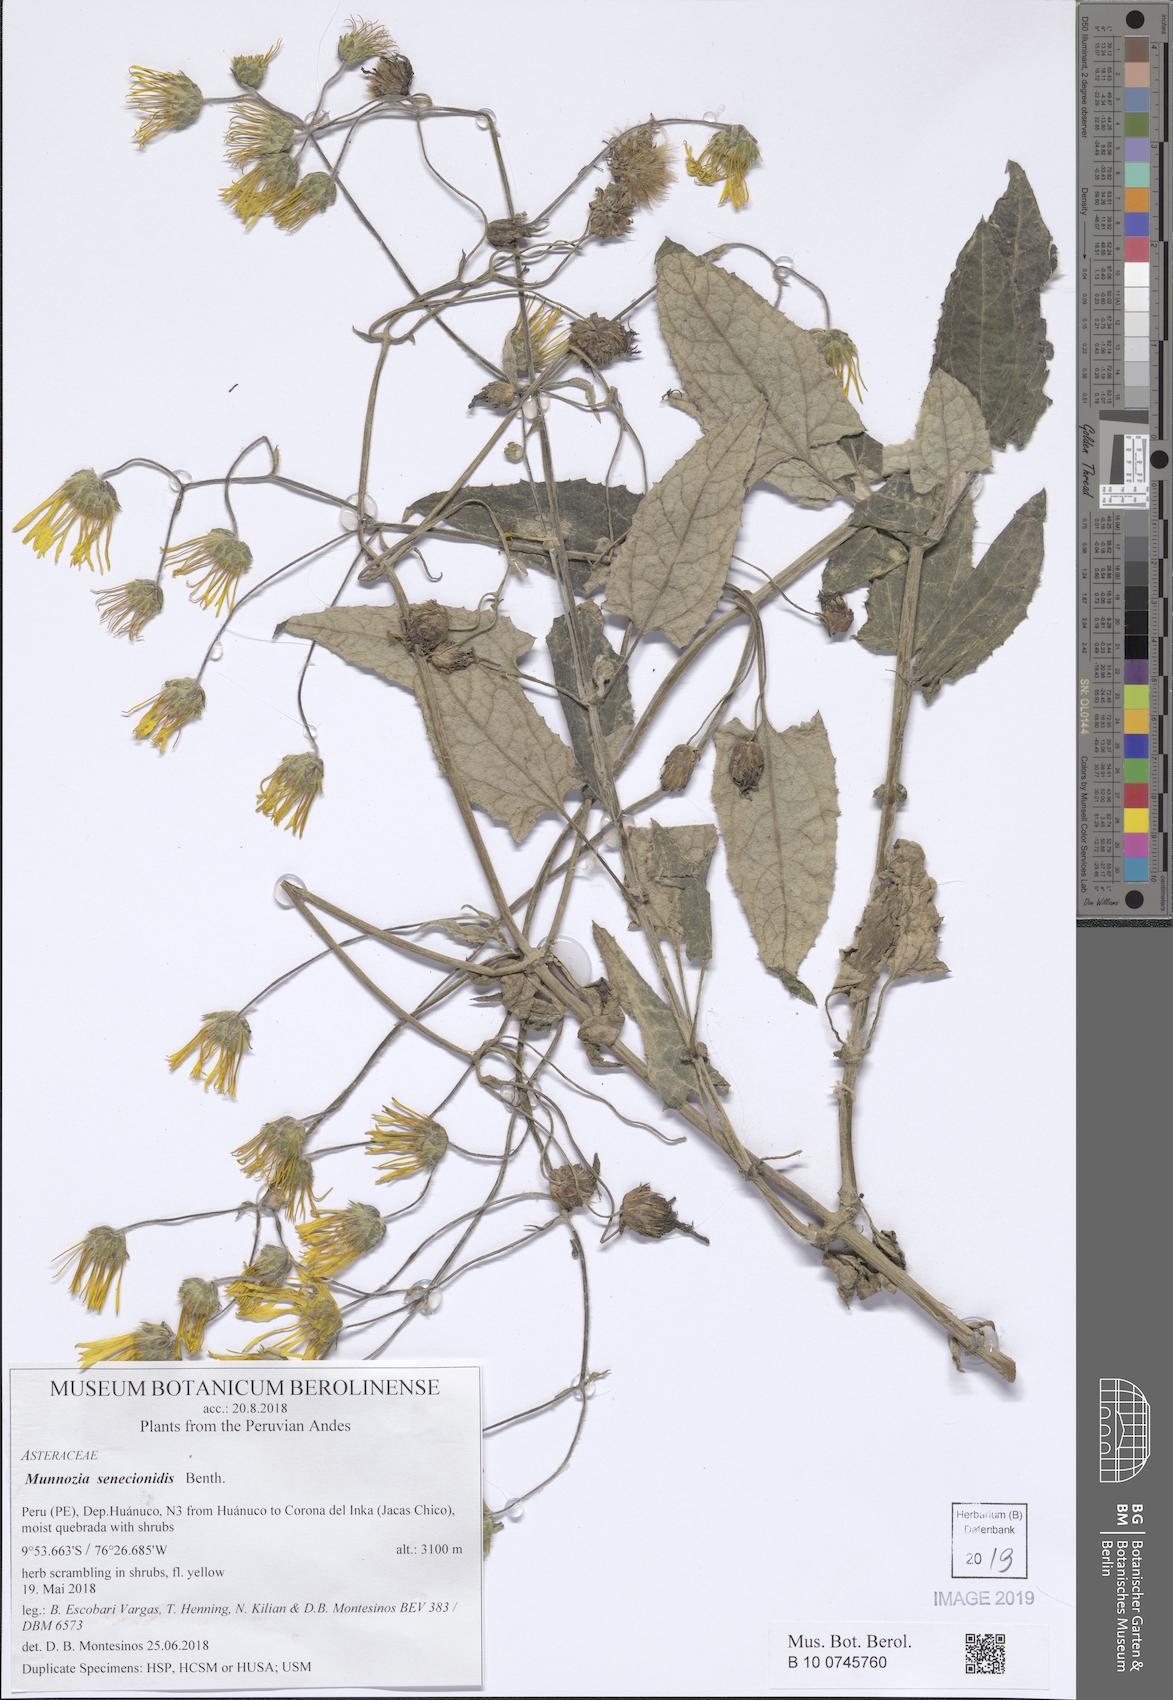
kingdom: Plantae
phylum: Tracheophyta
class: Magnoliopsida
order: Asterales
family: Asteraceae
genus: Munnozia
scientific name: Munnozia senecionidis
